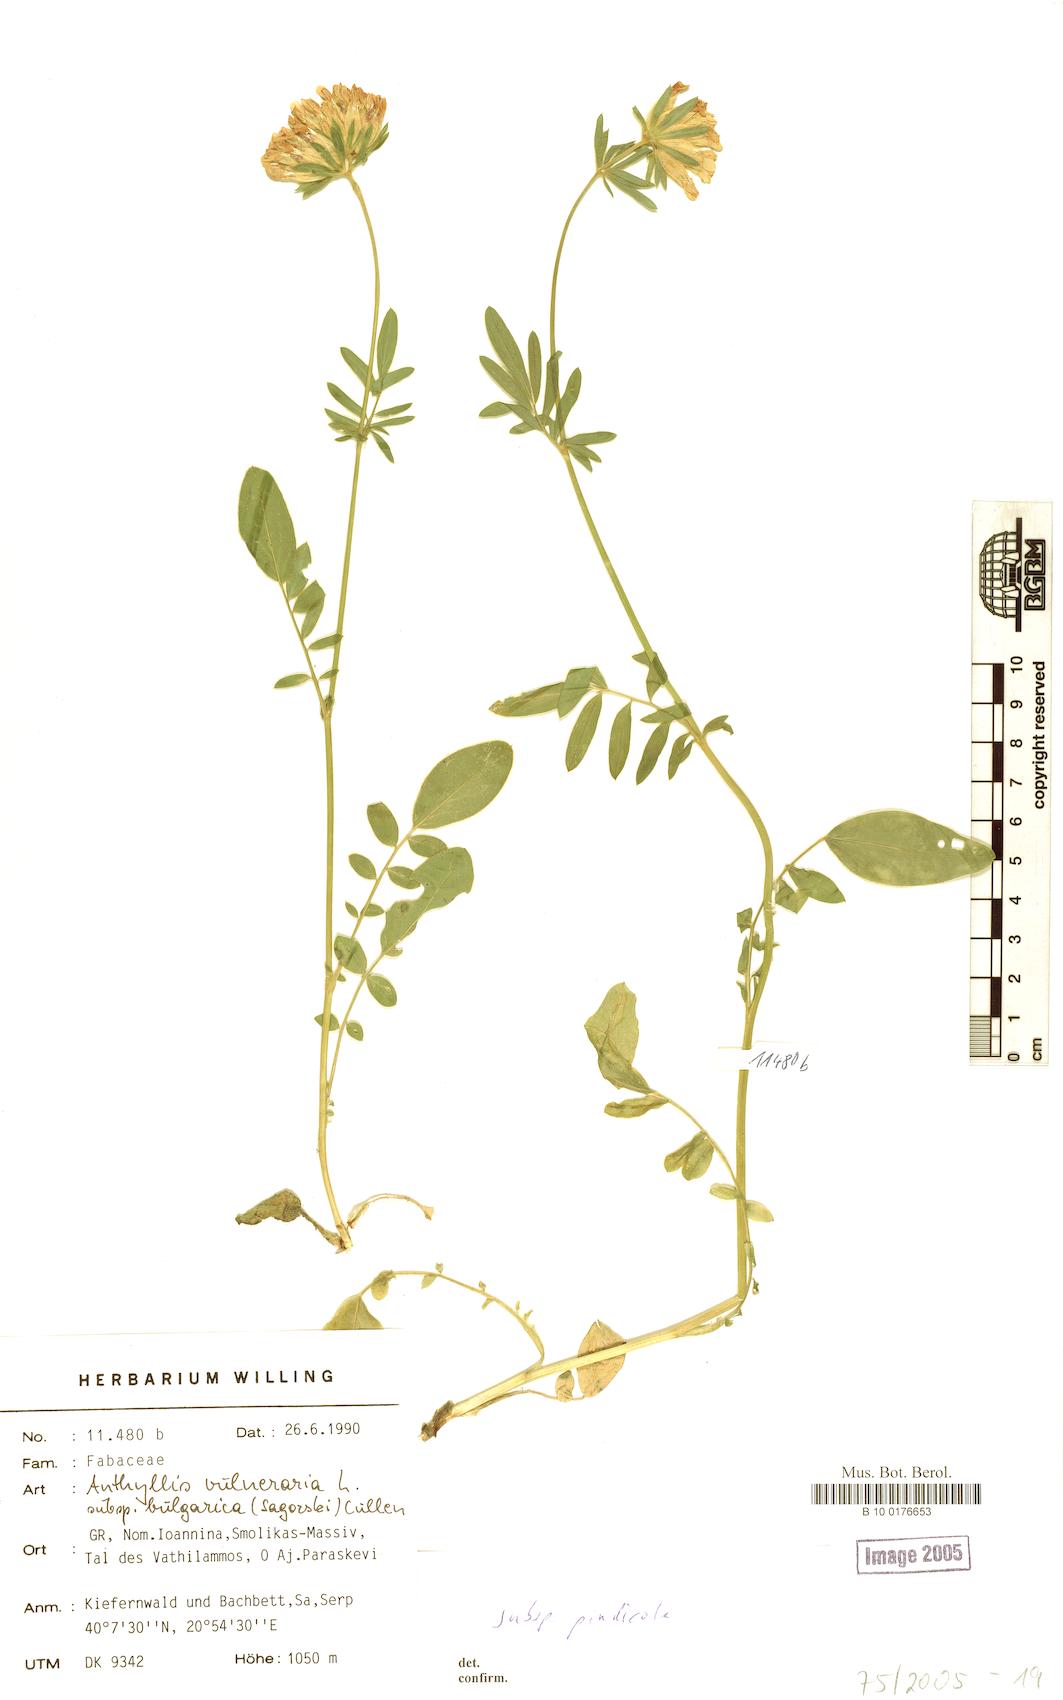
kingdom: Plantae
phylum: Tracheophyta
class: Magnoliopsida
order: Fabales
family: Fabaceae
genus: Anthyllis
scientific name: Anthyllis vulneraria
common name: Kidney vetch
